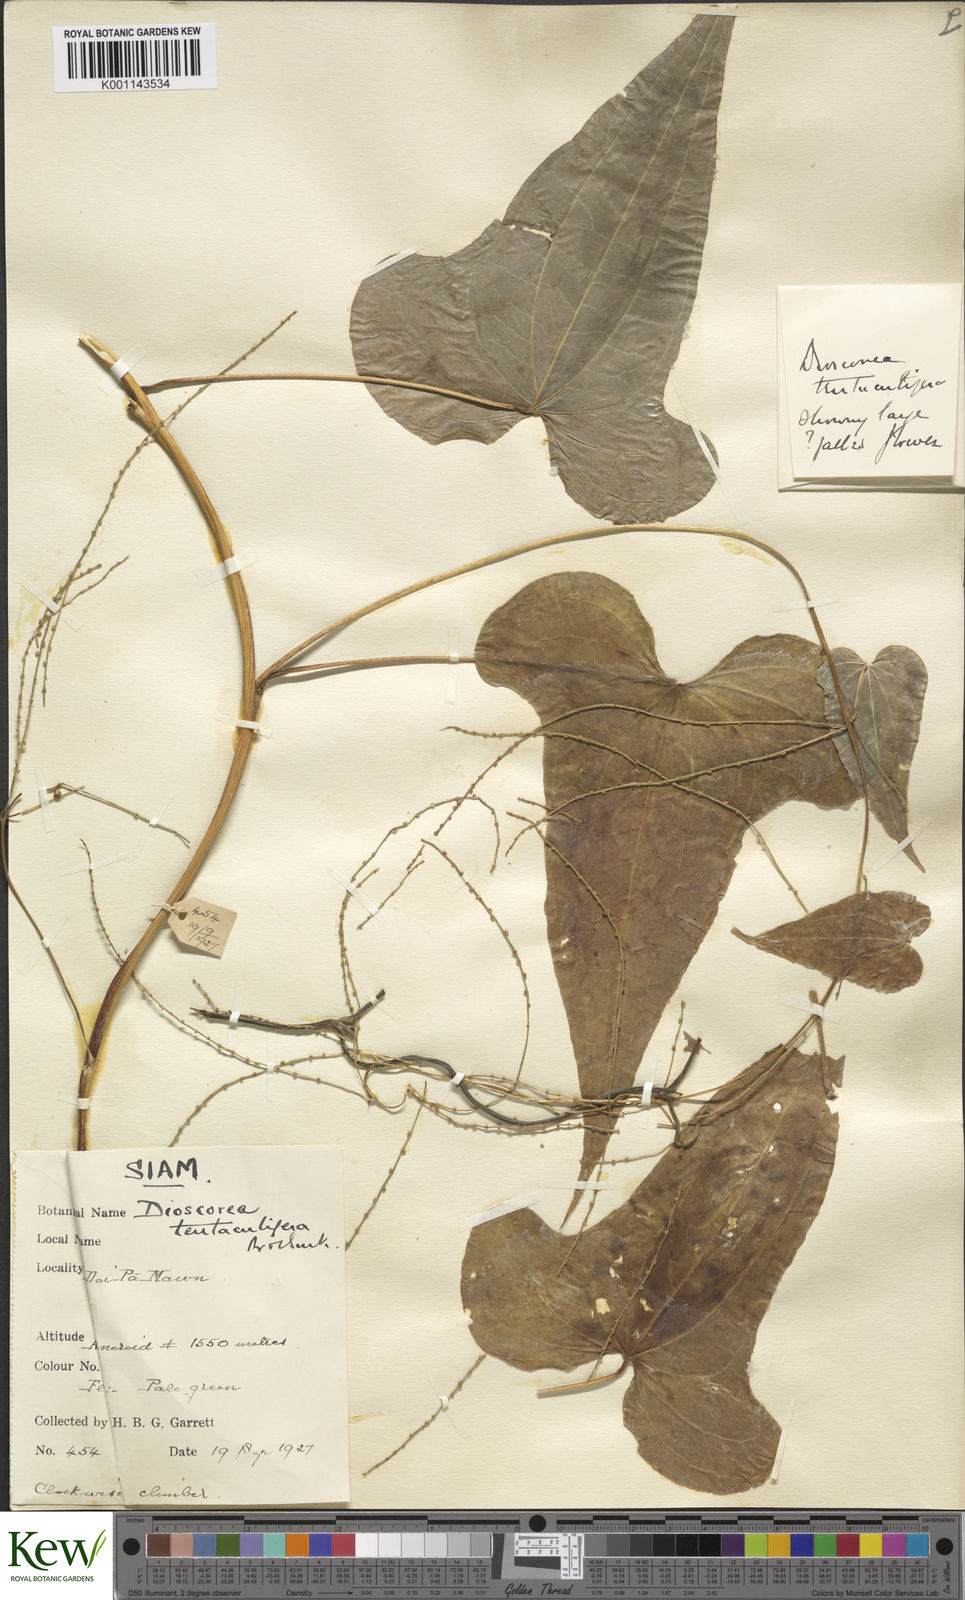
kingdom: Plantae
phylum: Tracheophyta
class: Liliopsida
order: Dioscoreales
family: Dioscoreaceae
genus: Dioscorea
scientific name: Dioscorea tentaculigera
